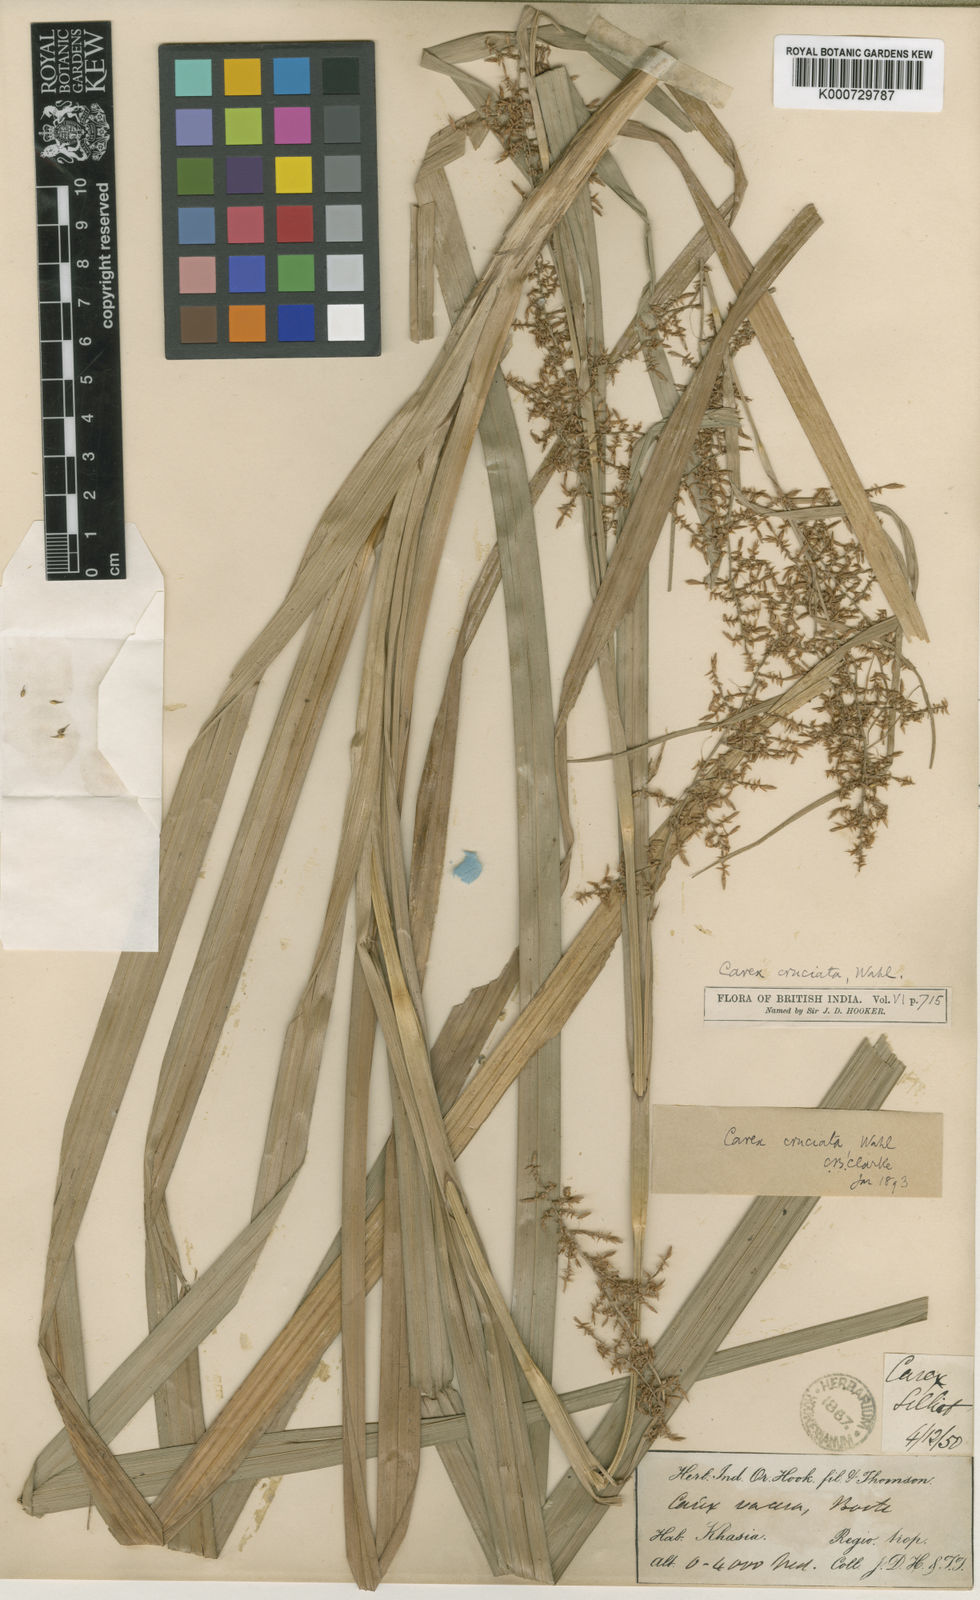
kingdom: Plantae
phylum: Tracheophyta
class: Liliopsida
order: Poales
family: Cyperaceae
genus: Carex
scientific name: Carex cruciata
